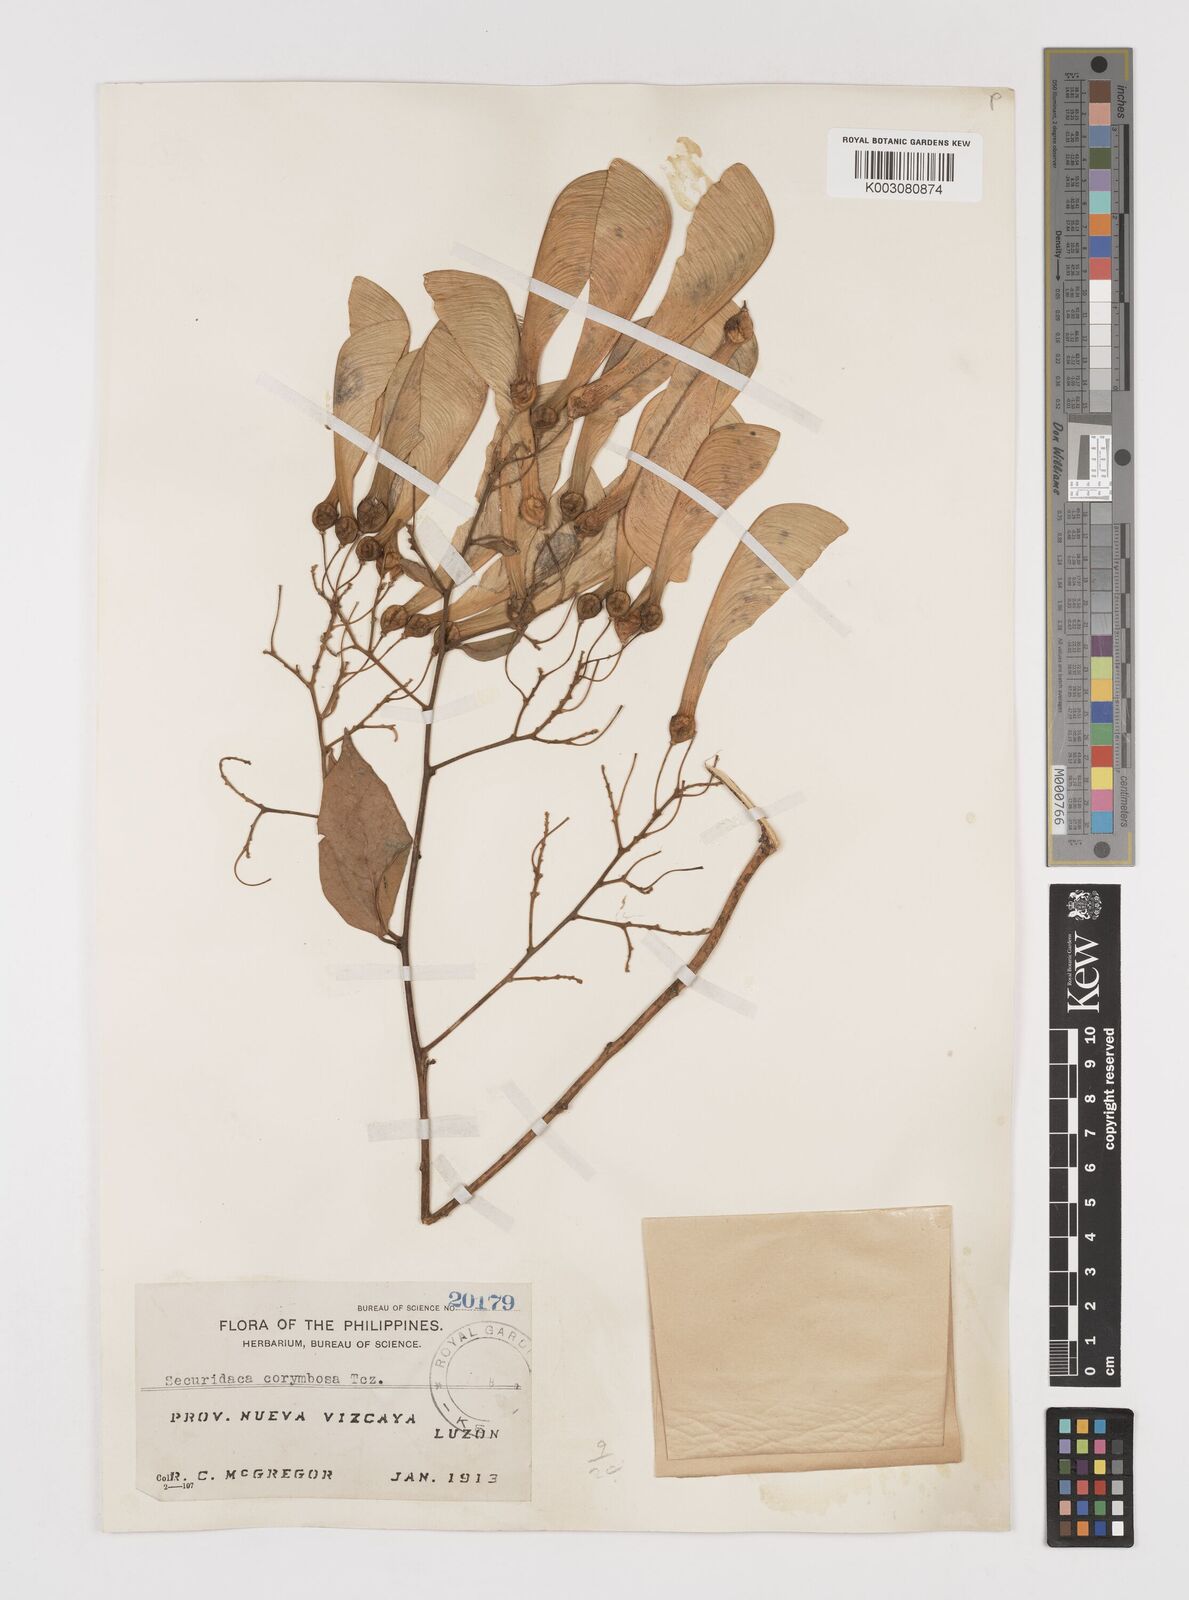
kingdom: Plantae
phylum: Tracheophyta
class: Magnoliopsida
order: Fabales
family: Polygalaceae
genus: Securidaca
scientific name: Securidaca inappendiculata
